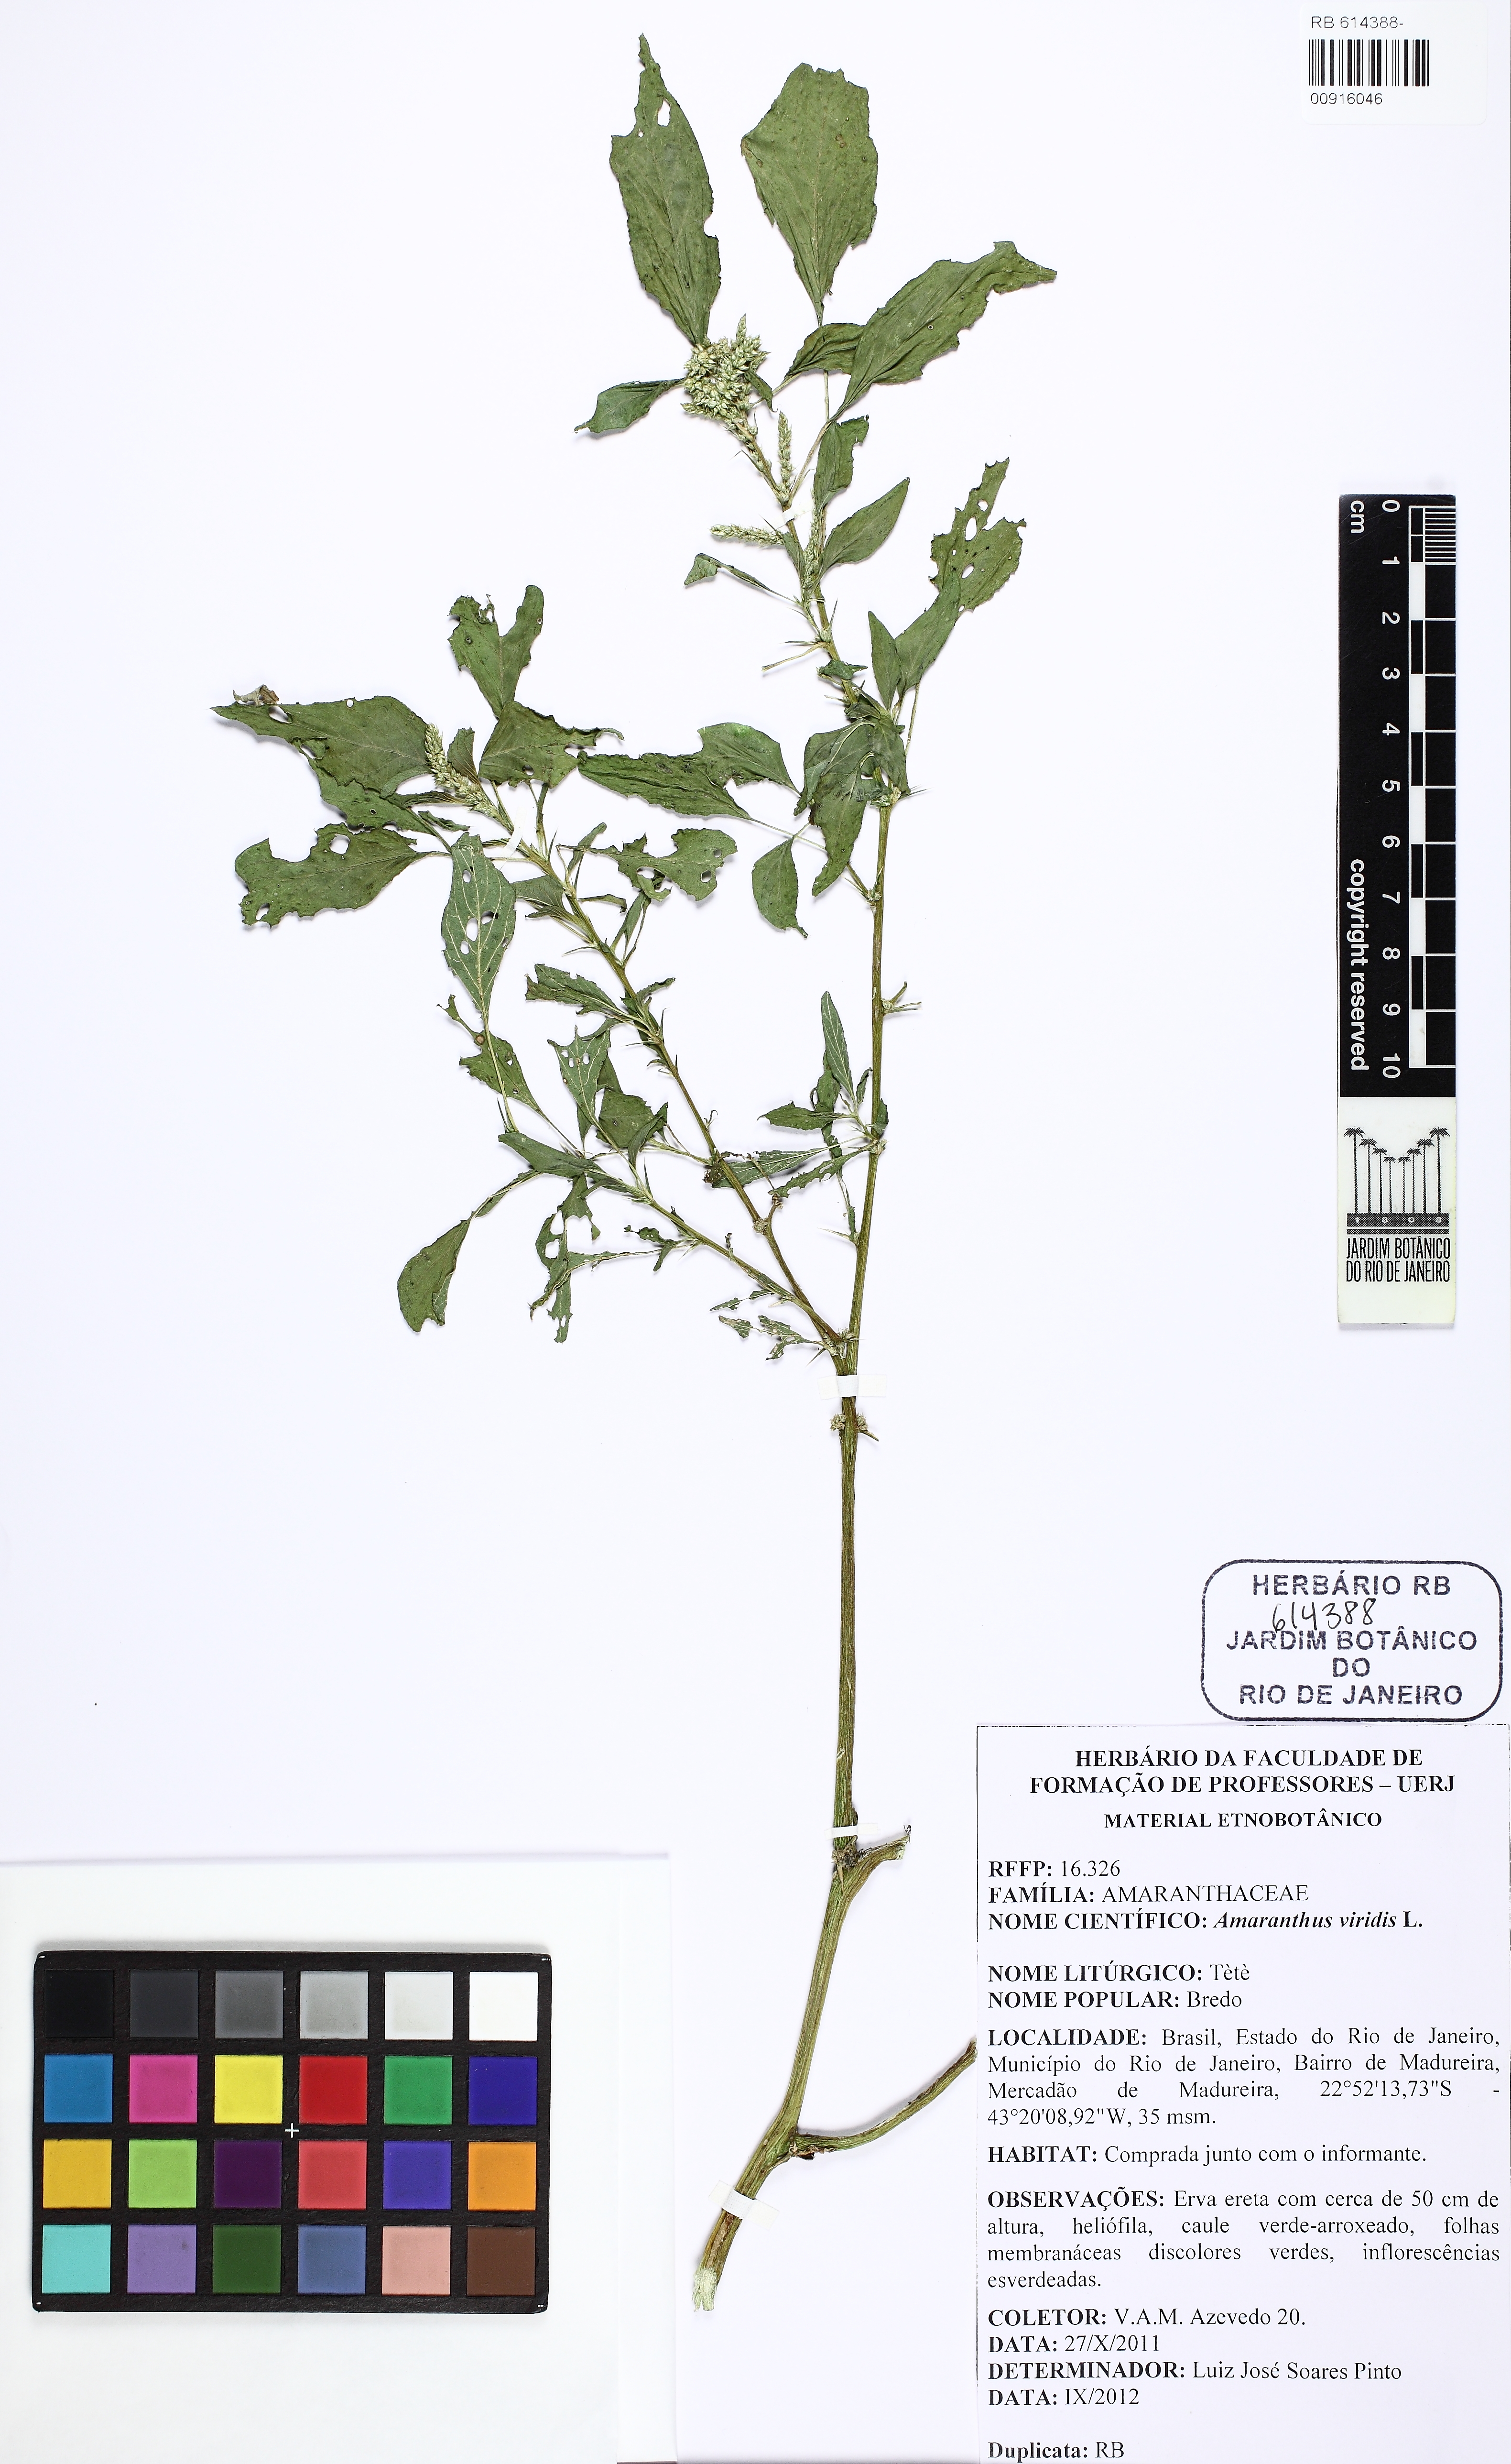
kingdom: Plantae
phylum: Tracheophyta
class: Magnoliopsida
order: Caryophyllales
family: Amaranthaceae
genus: Amaranthus
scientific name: Amaranthus viridis
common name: Slender amaranth
